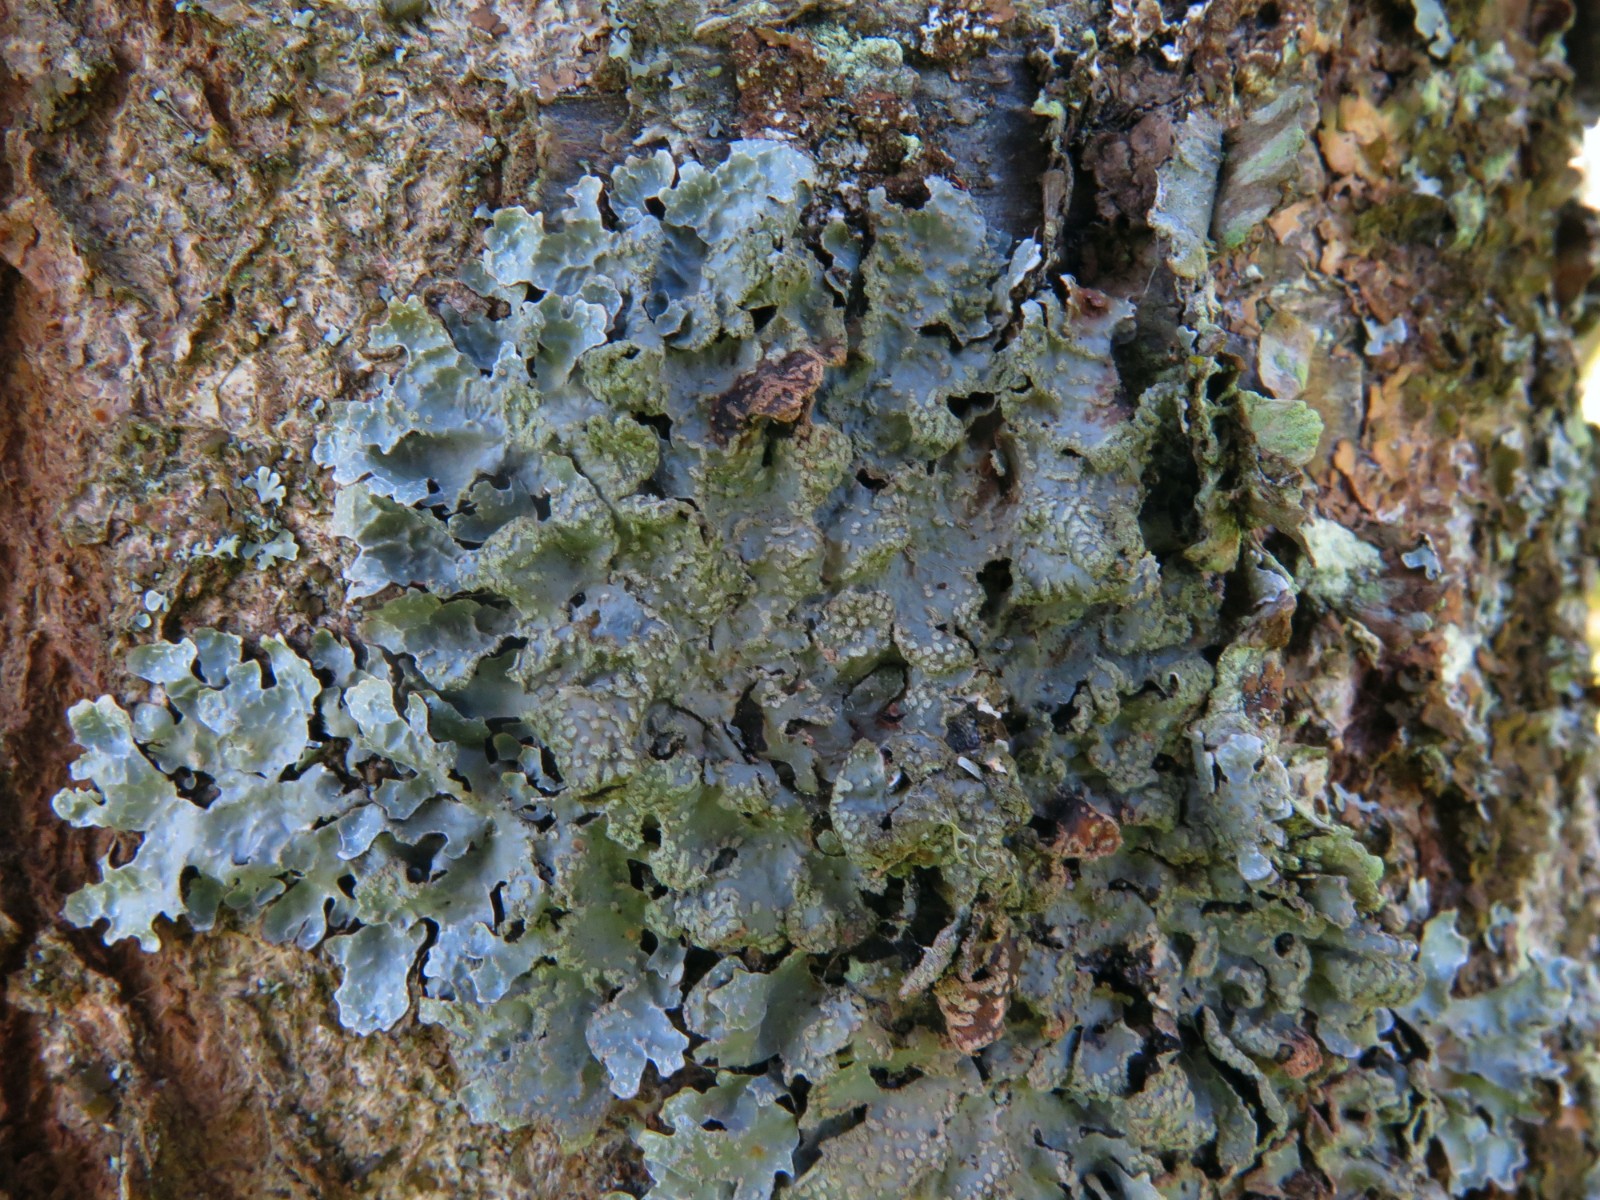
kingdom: Fungi
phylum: Ascomycota
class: Lecanoromycetes
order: Lecanorales
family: Parmeliaceae
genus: Parmelia
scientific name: Parmelia sulcata
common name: rynket skållav
